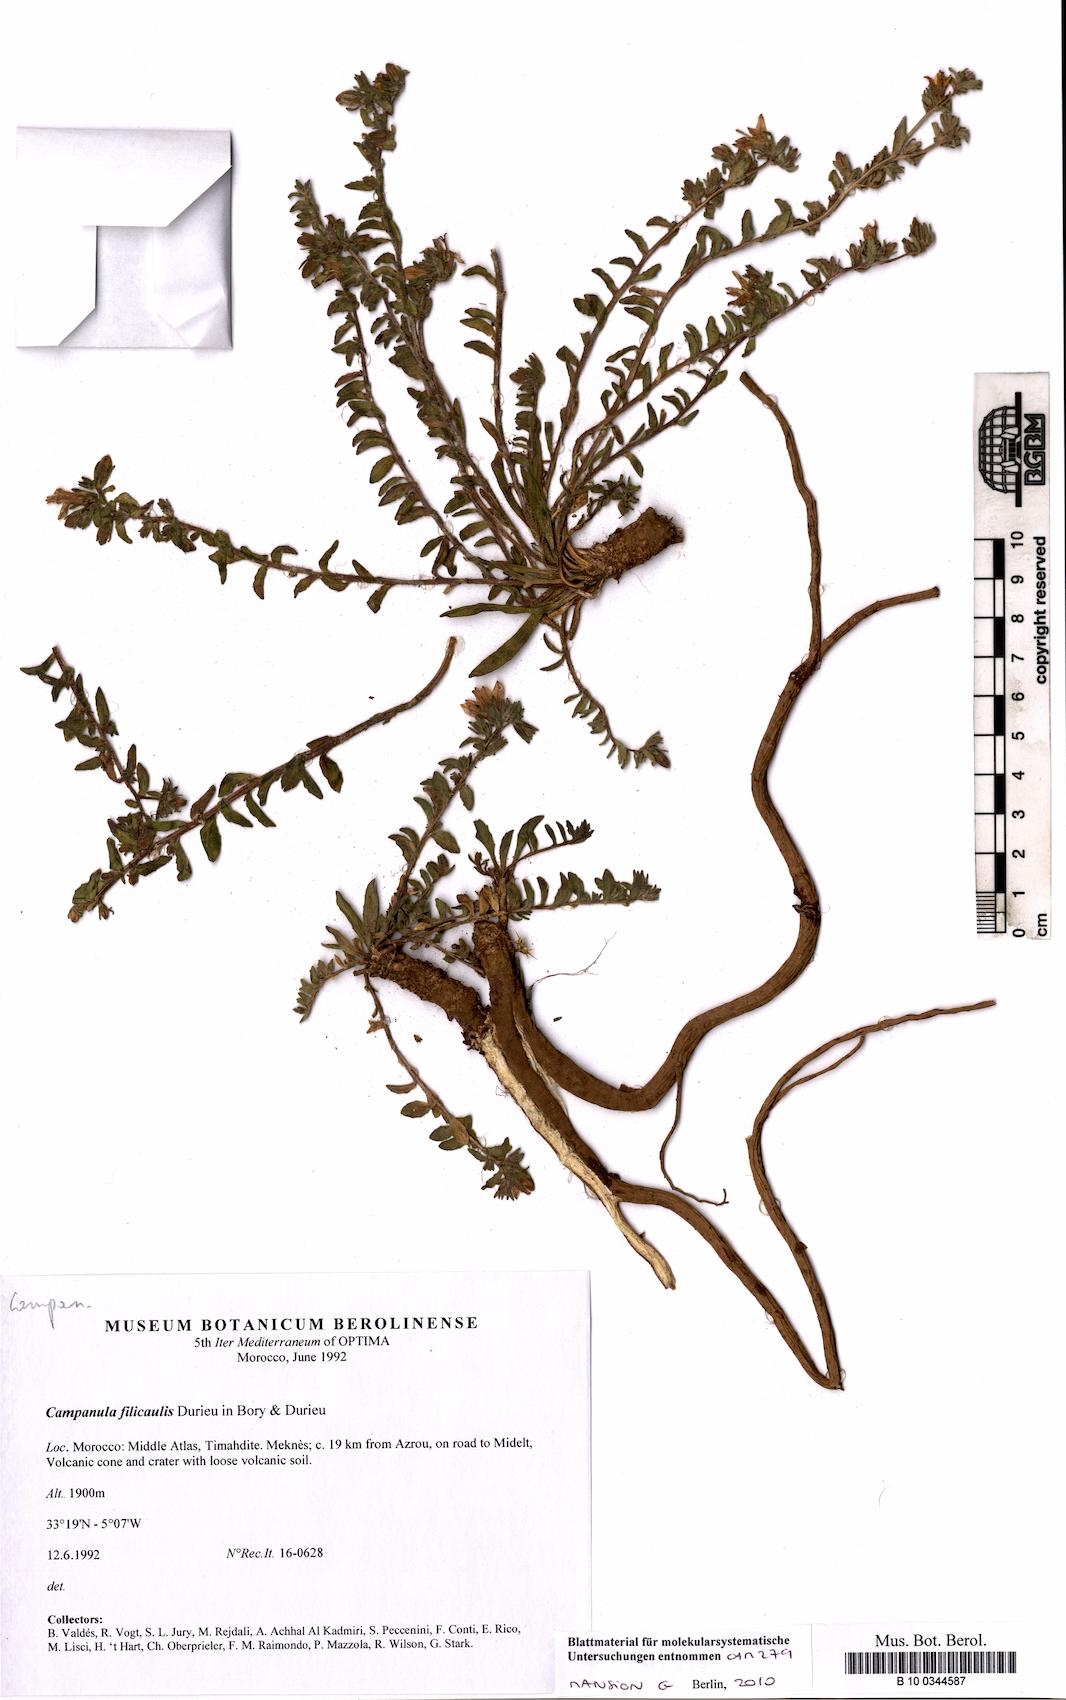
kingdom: Plantae
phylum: Tracheophyta
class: Magnoliopsida
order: Asterales
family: Campanulaceae
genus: Campanula
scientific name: Campanula filicaulis
